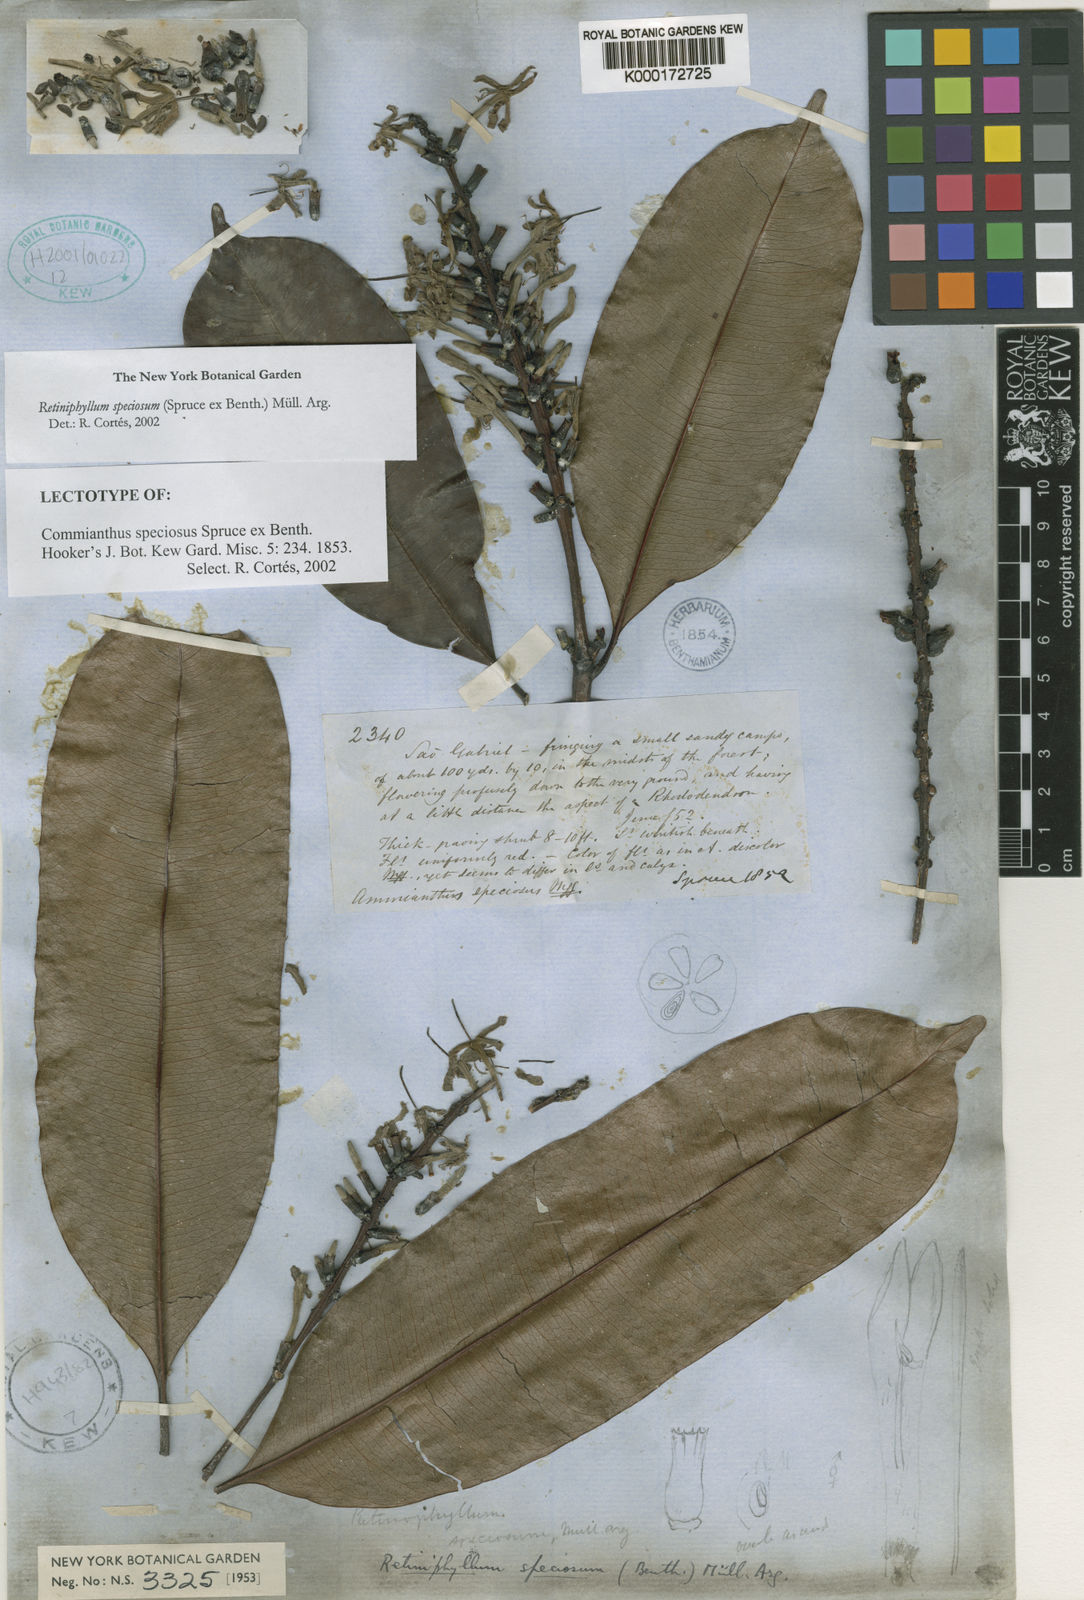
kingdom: Plantae
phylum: Tracheophyta
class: Magnoliopsida
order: Gentianales
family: Rubiaceae
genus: Retiniphyllum
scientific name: Retiniphyllum
